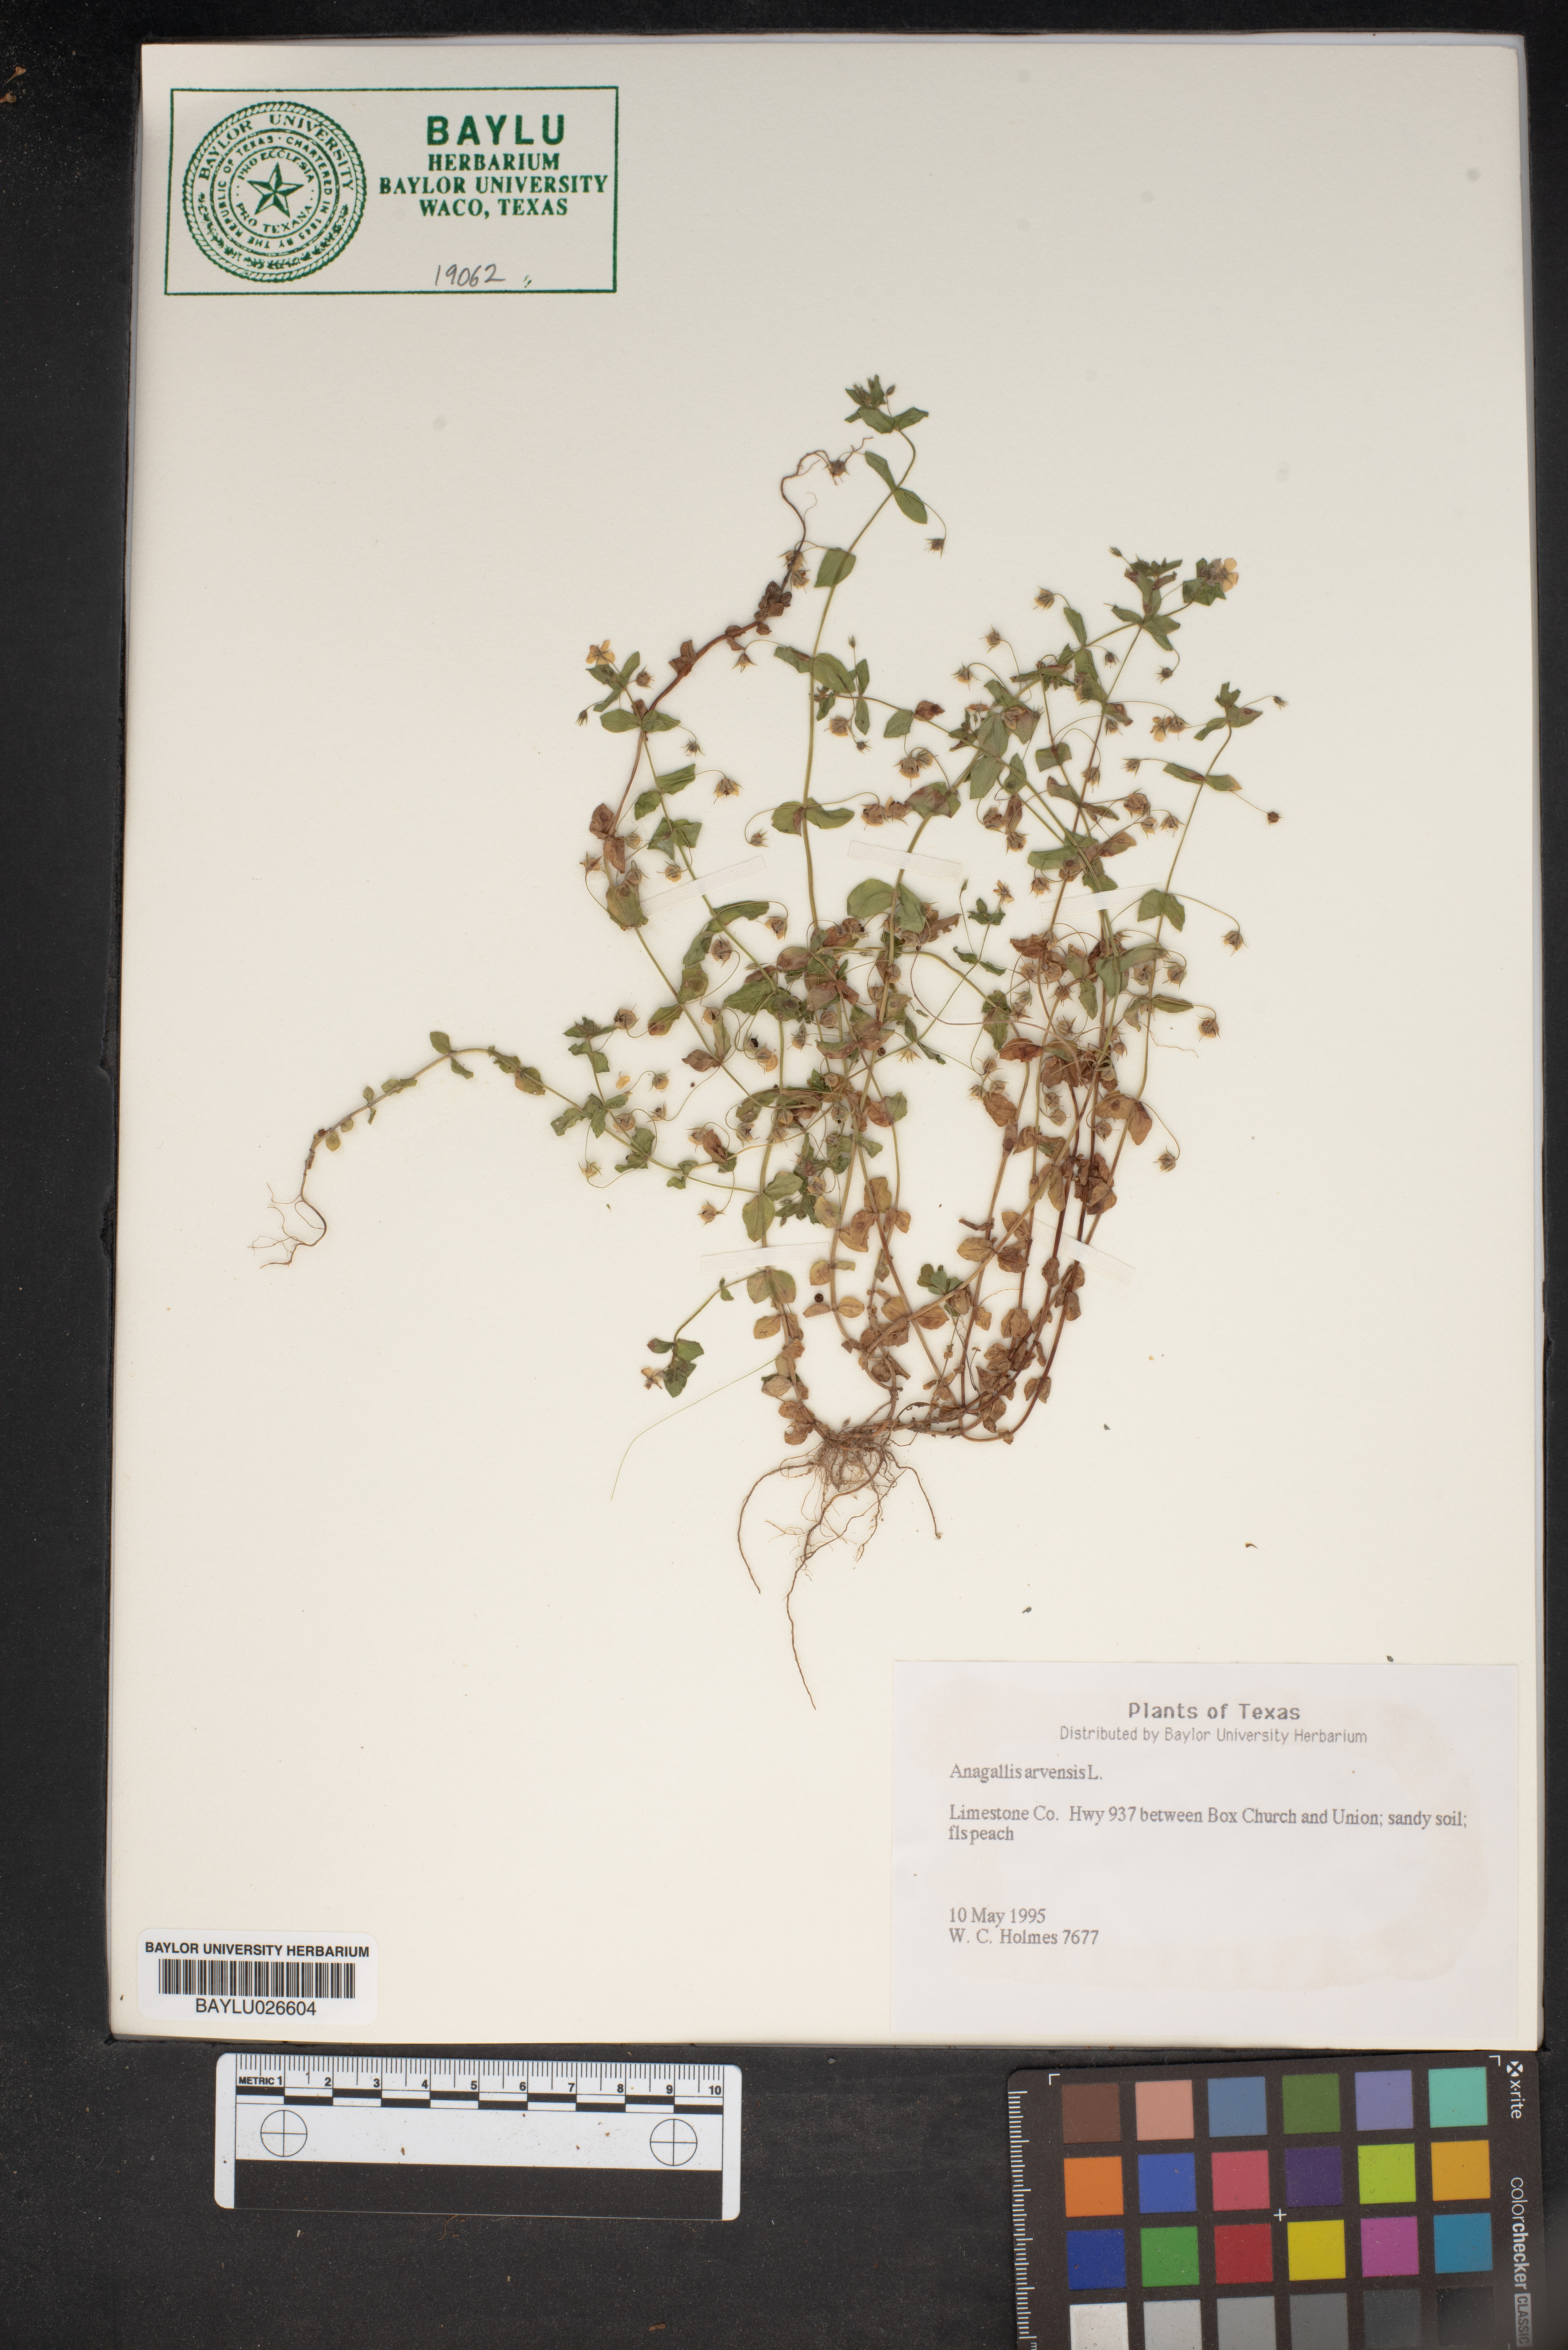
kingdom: Plantae
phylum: Tracheophyta
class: Magnoliopsida
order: Ericales
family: Primulaceae
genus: Lysimachia
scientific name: Lysimachia arvensis
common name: Scarlet pimpernel
